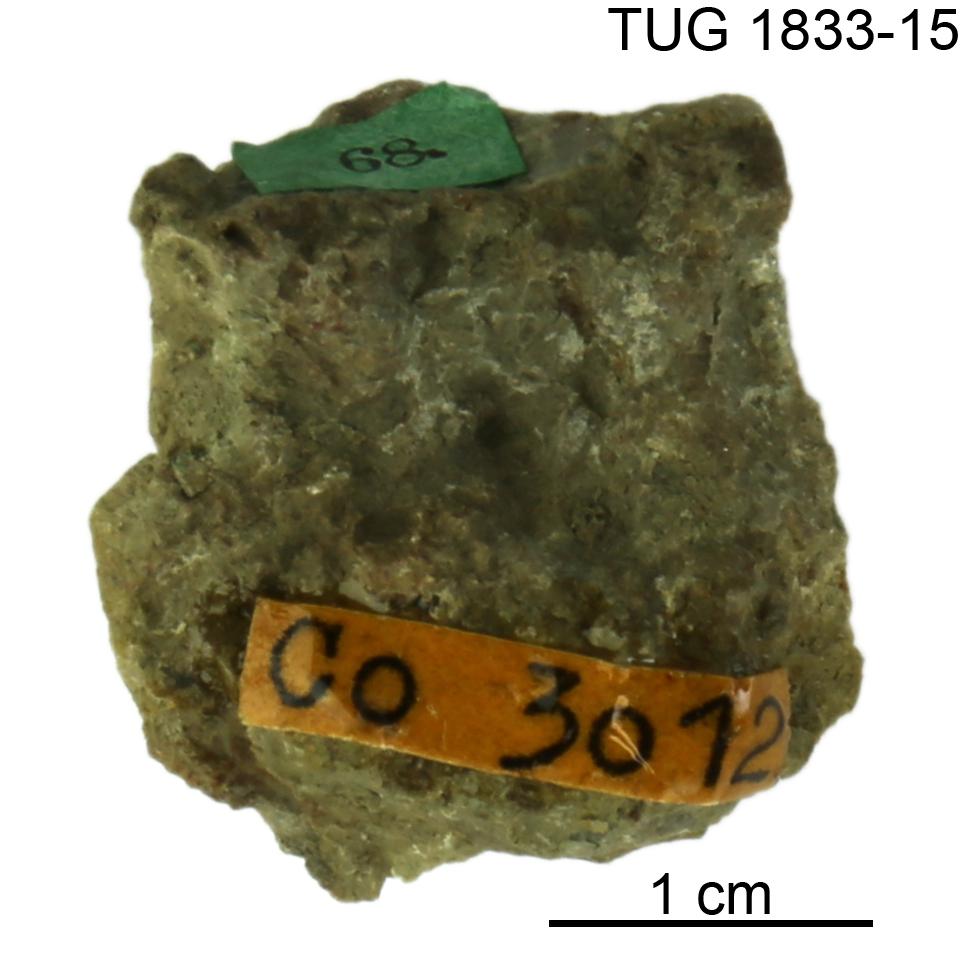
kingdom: Animalia
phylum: Porifera
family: Stylostromatidae
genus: Pachystylostroma
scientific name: Pachystylostroma Stromatopora ungerni
